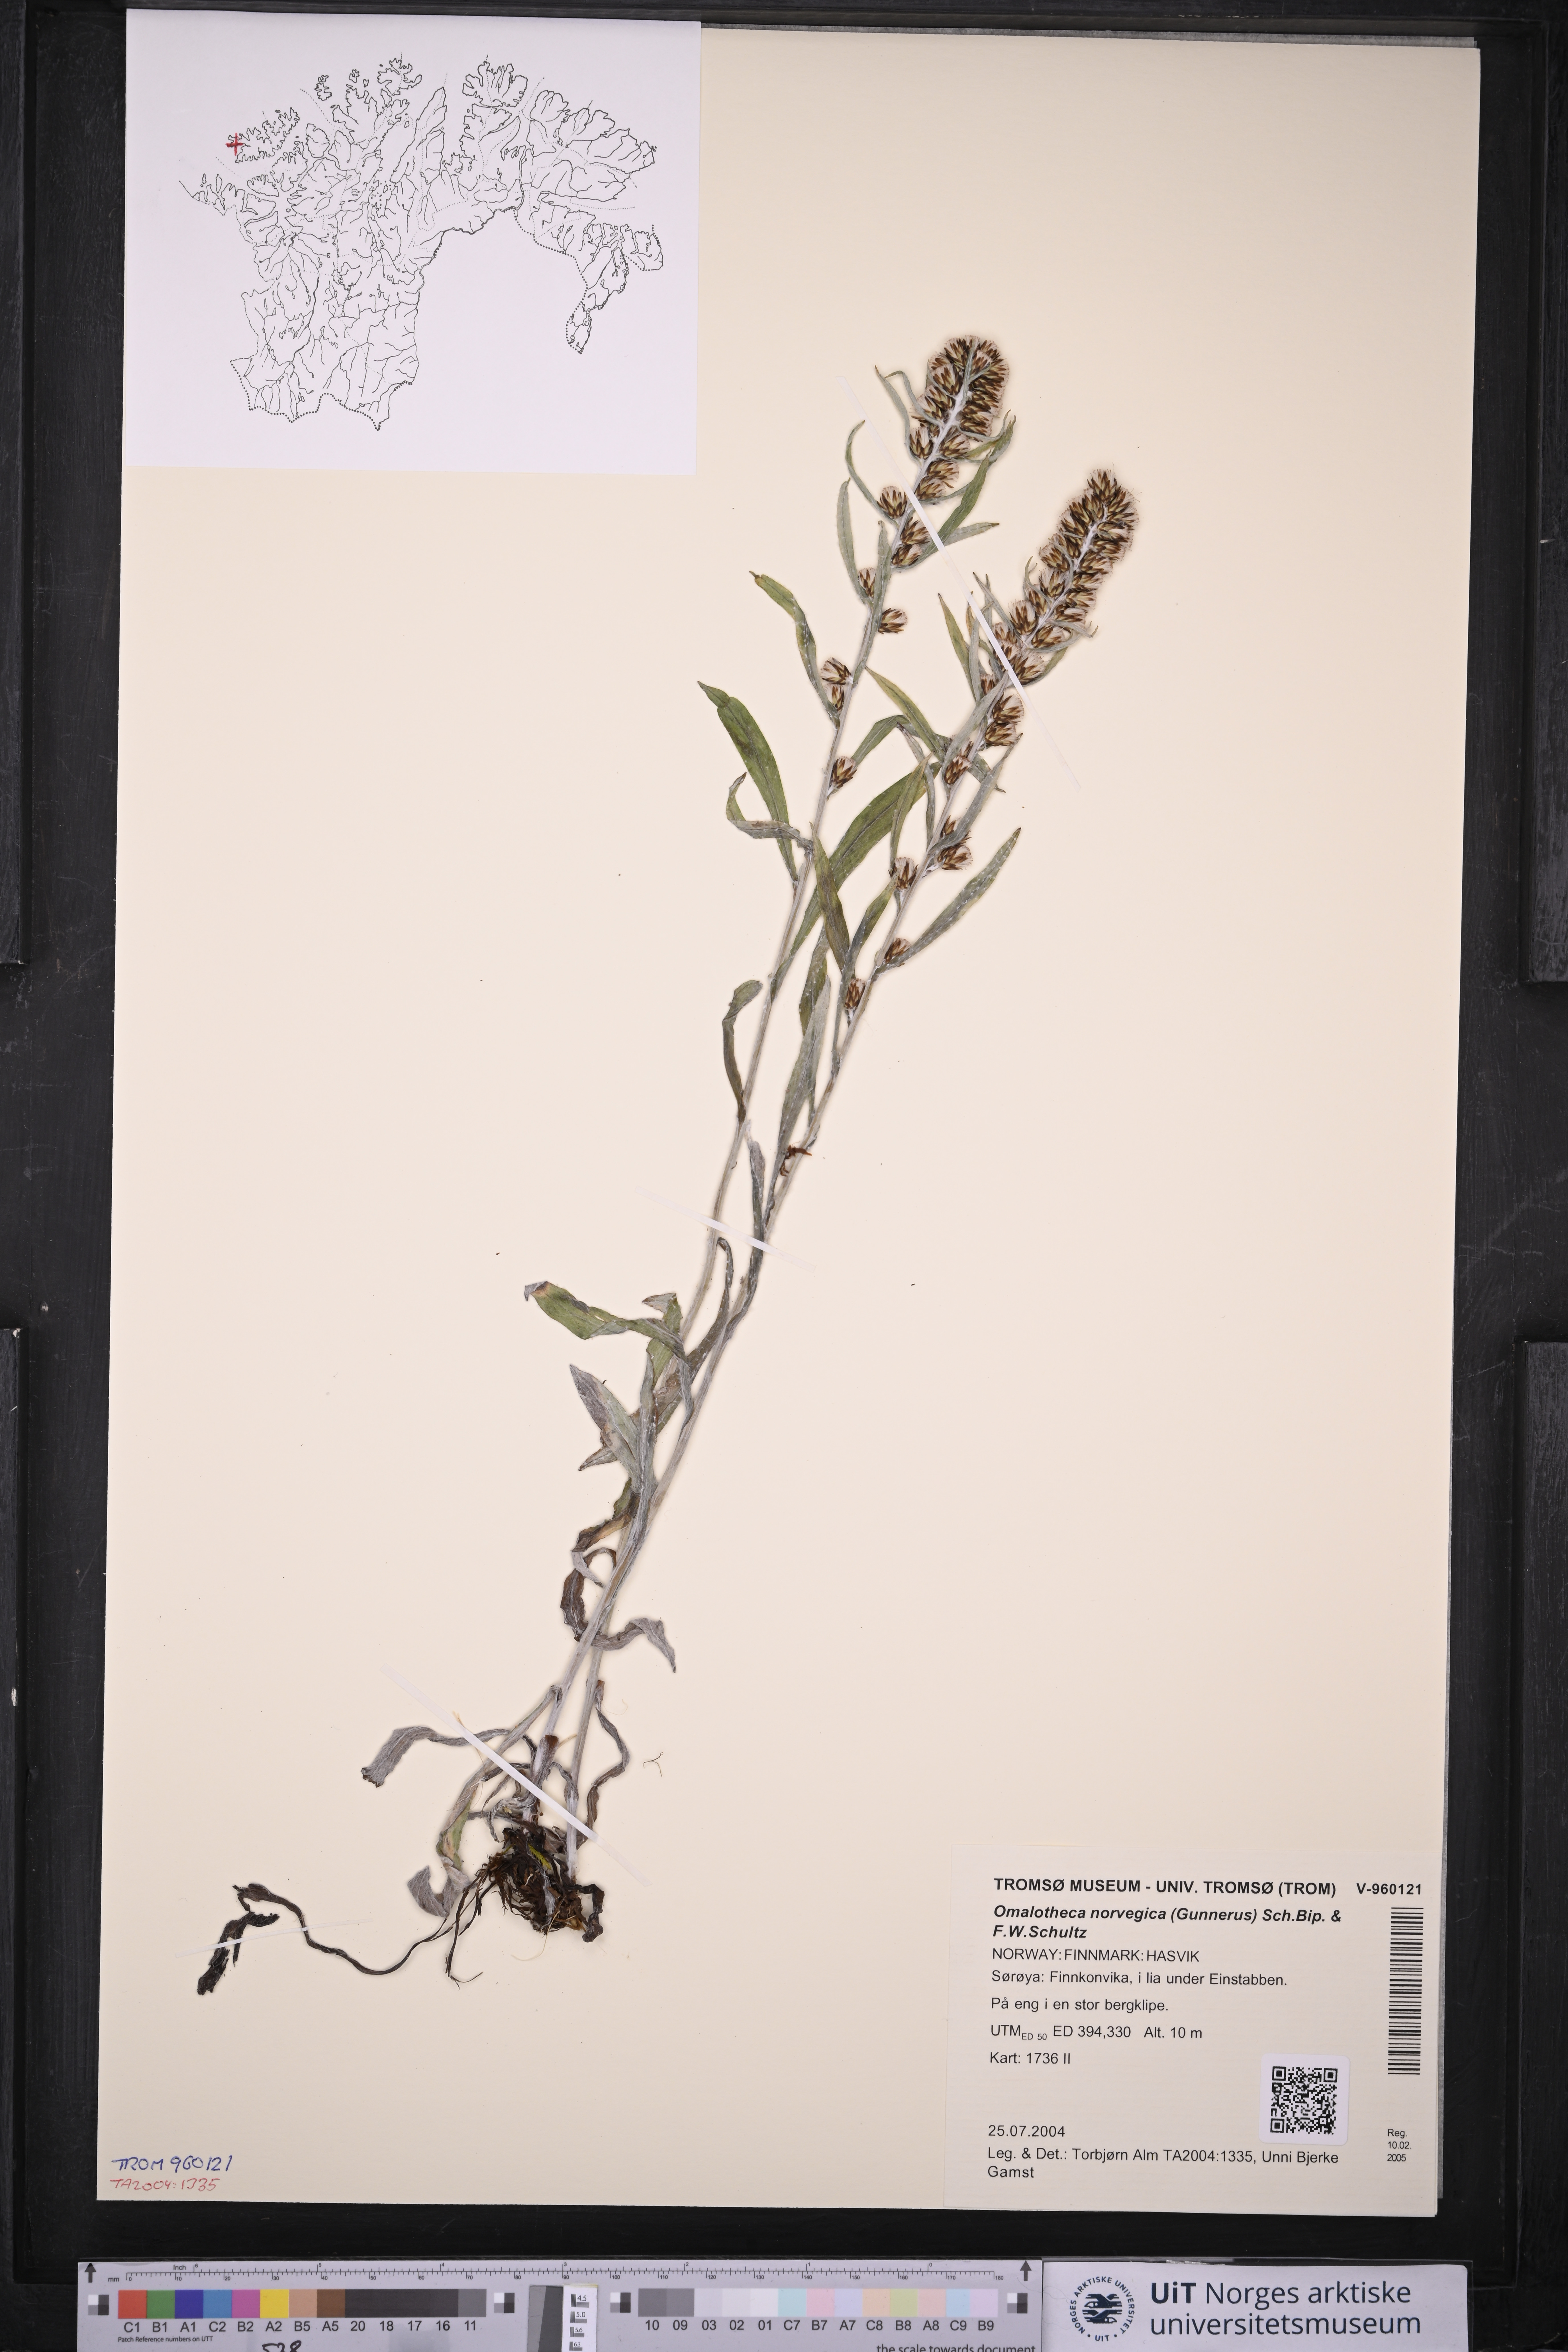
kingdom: Plantae
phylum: Tracheophyta
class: Magnoliopsida
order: Asterales
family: Asteraceae
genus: Omalotheca
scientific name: Omalotheca norvegica
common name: Norwegian arctic-cudweed
